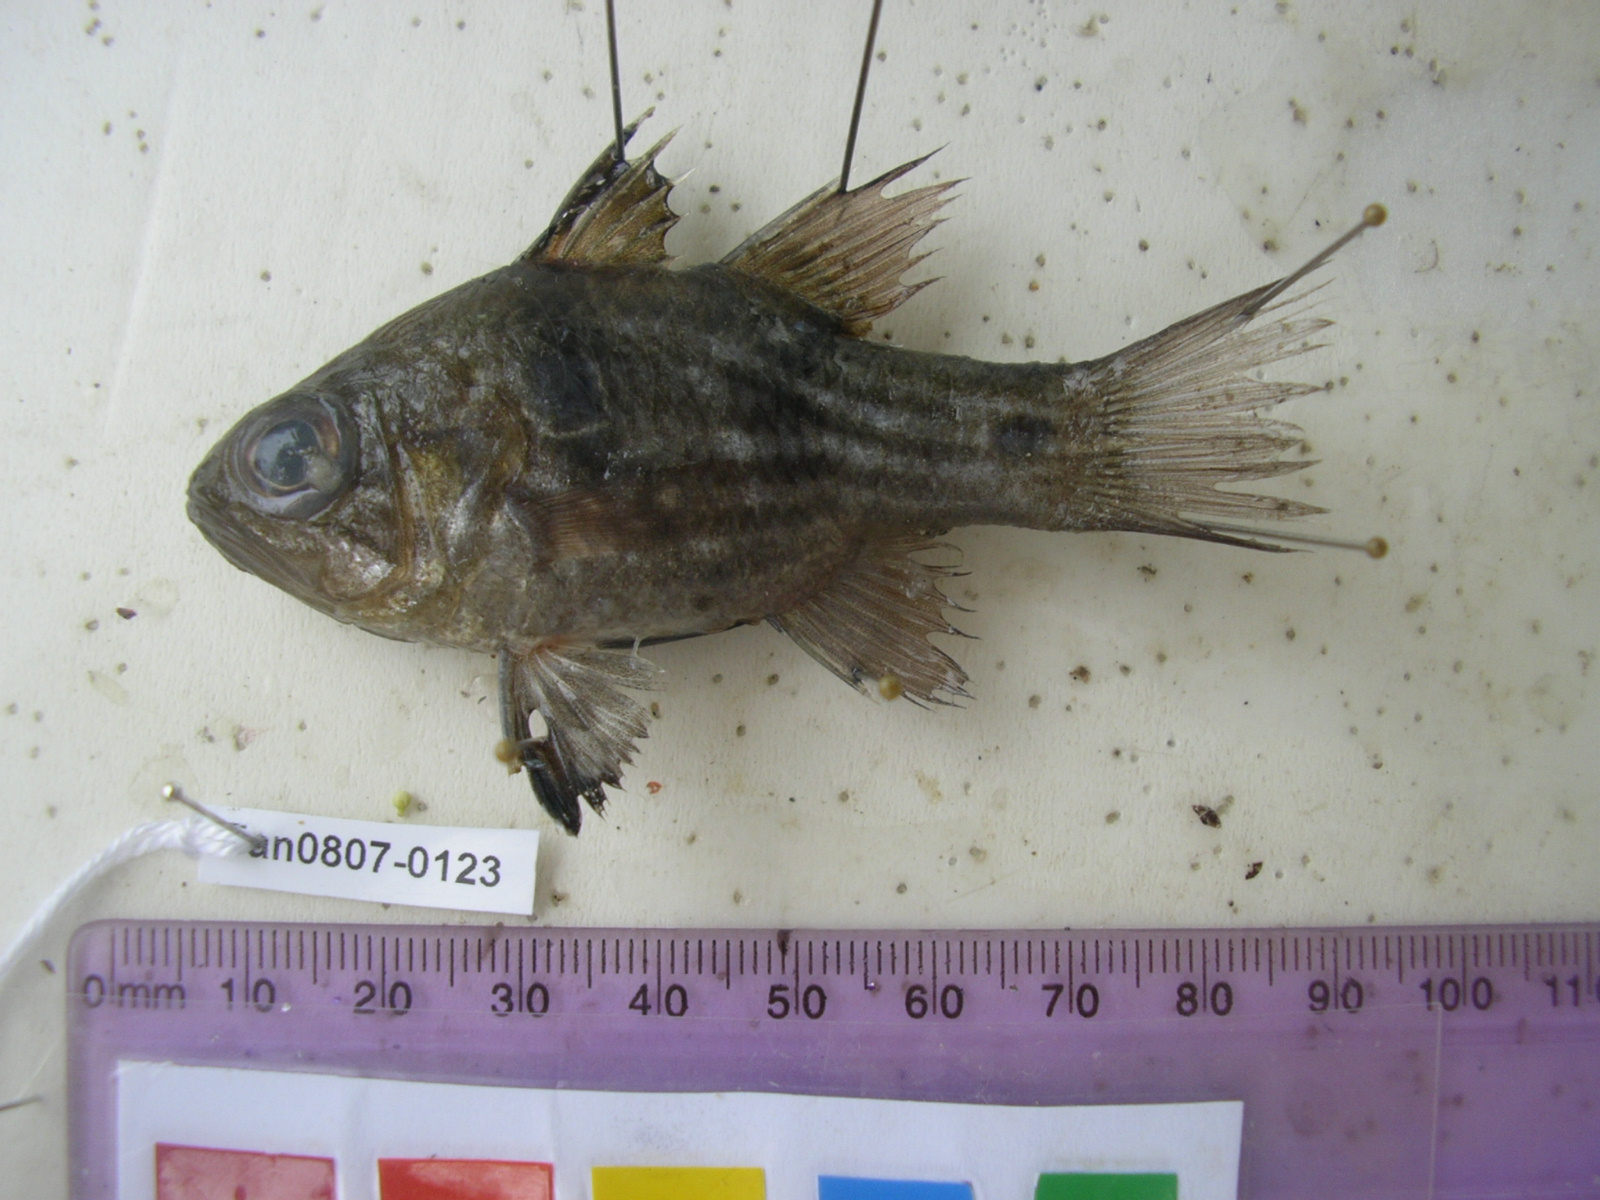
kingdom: Animalia
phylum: Chordata
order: Perciformes
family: Apogonidae
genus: Apogonichthyoides
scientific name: Apogonichthyoides taeniatus
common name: Twobelt cardinal
